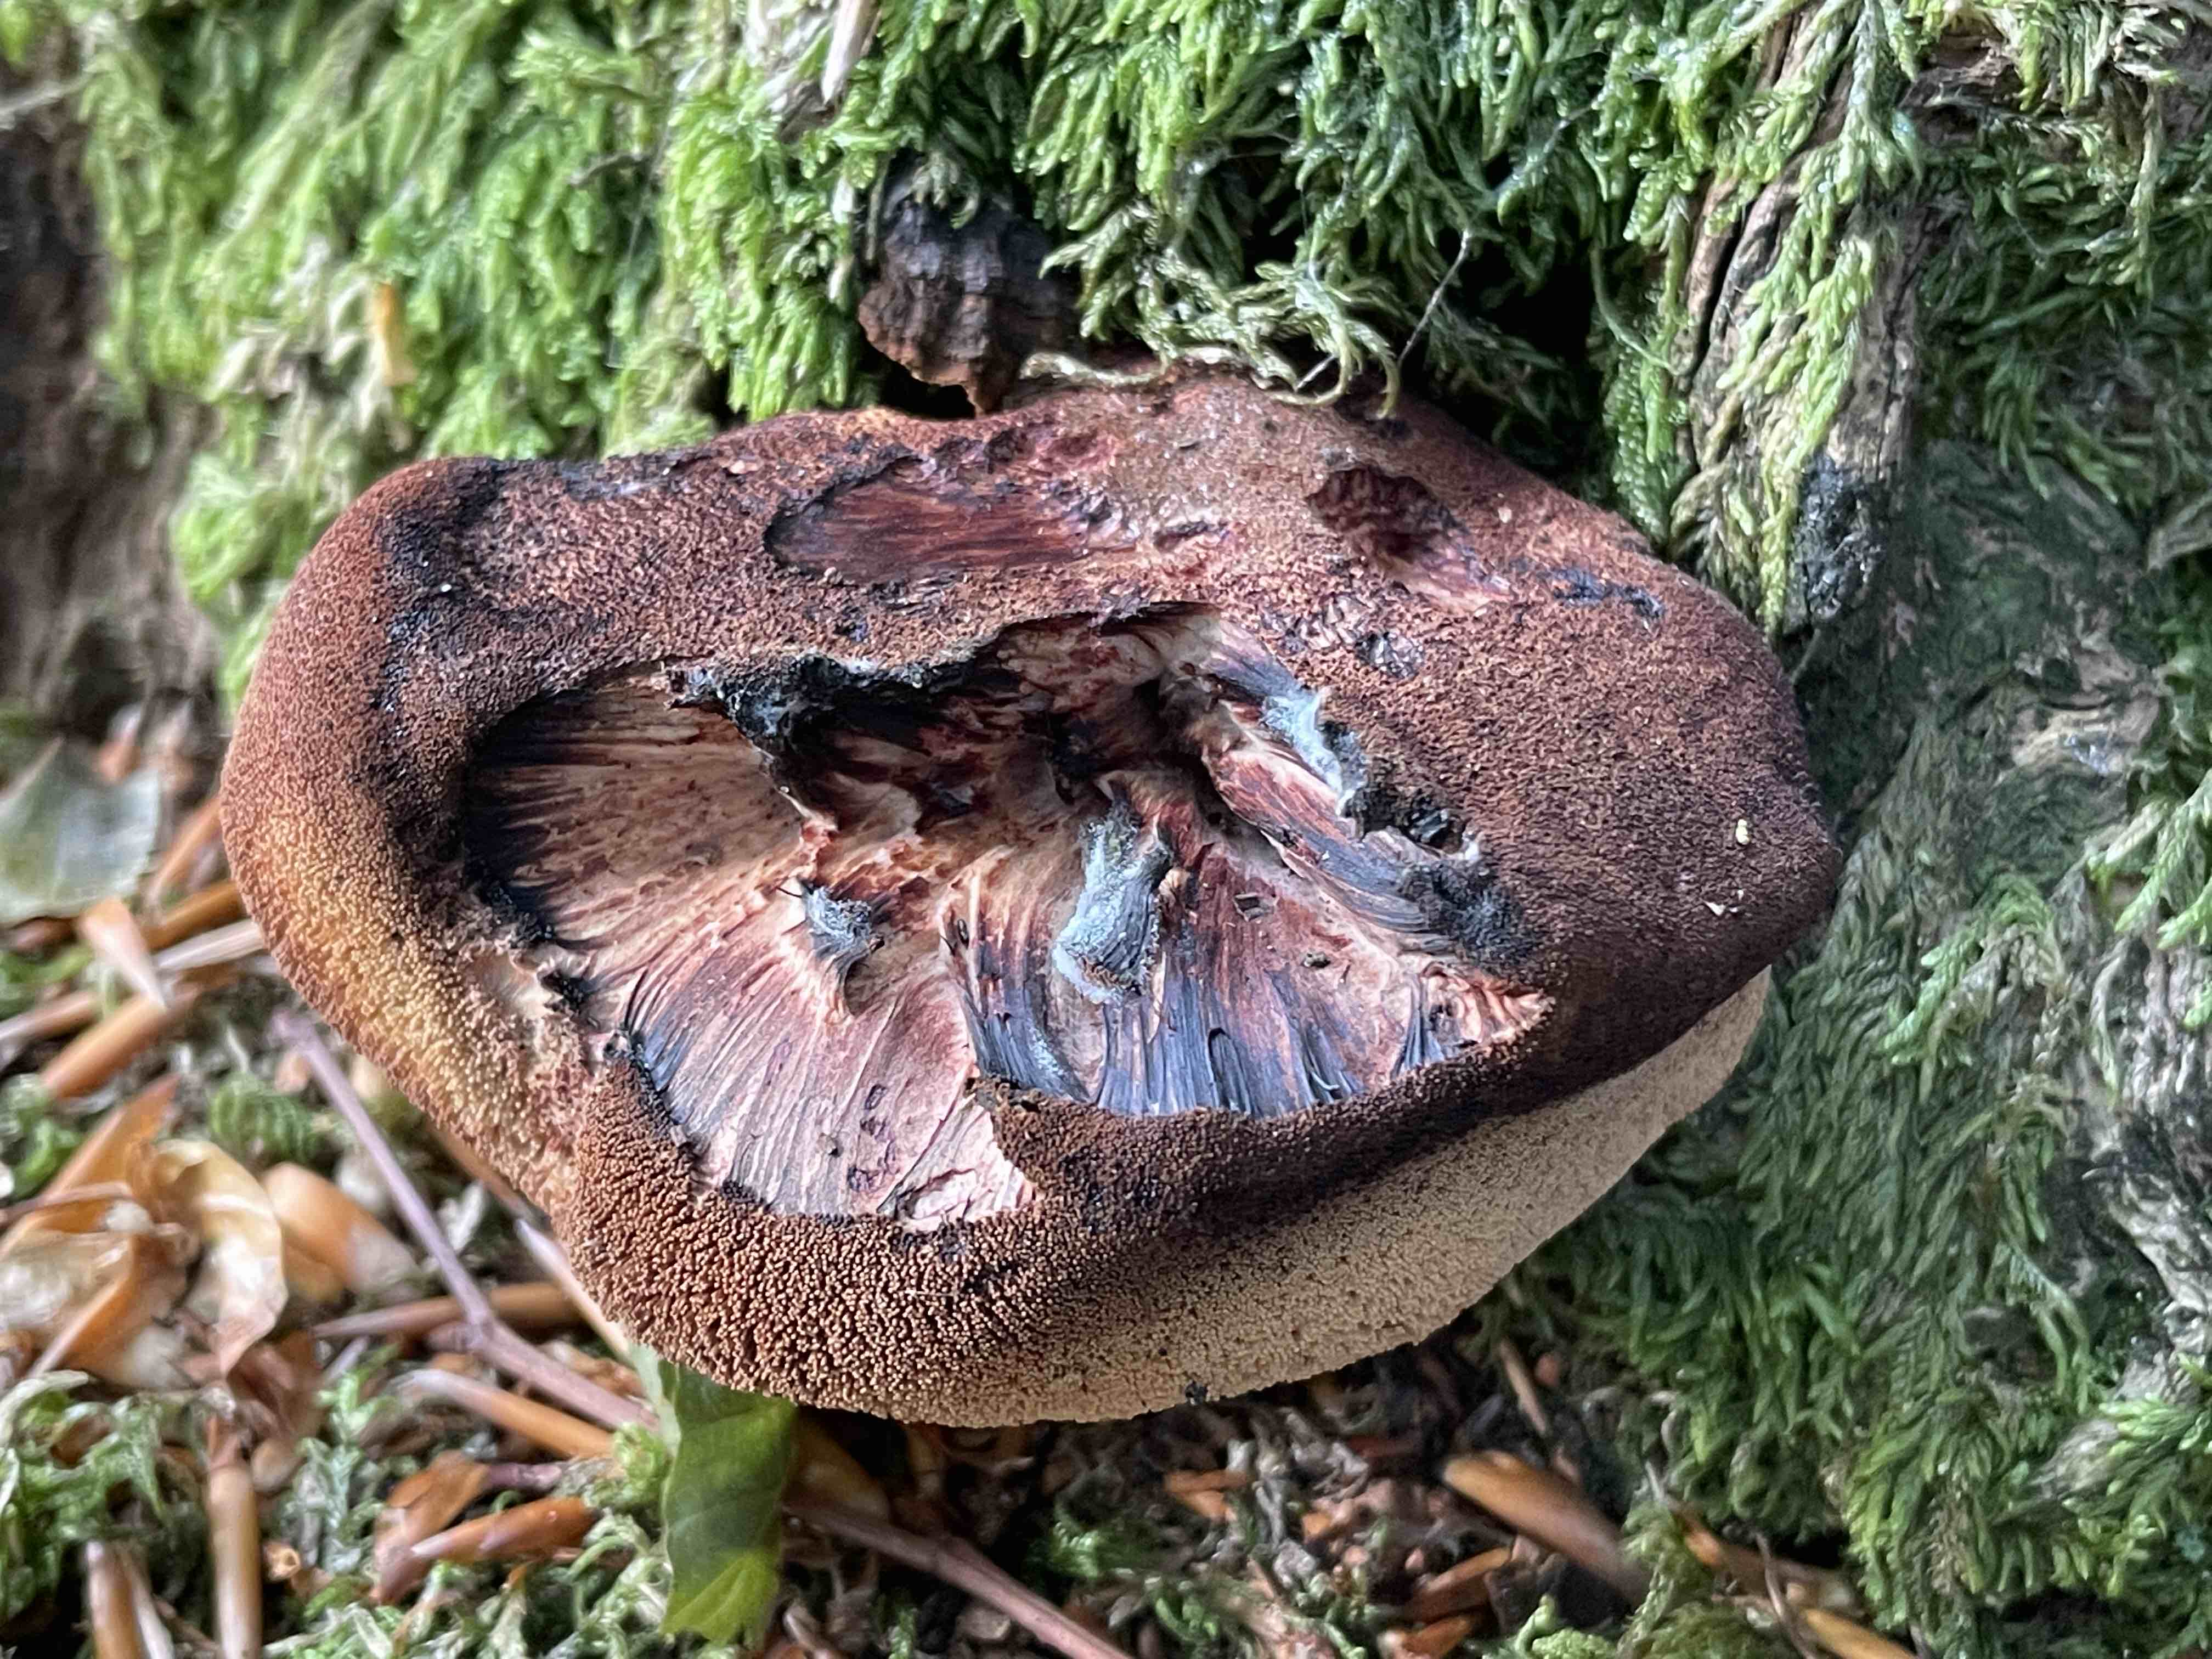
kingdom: Fungi
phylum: Basidiomycota
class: Agaricomycetes
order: Agaricales
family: Fistulinaceae
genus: Fistulina
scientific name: Fistulina hepatica
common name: oksetunge
